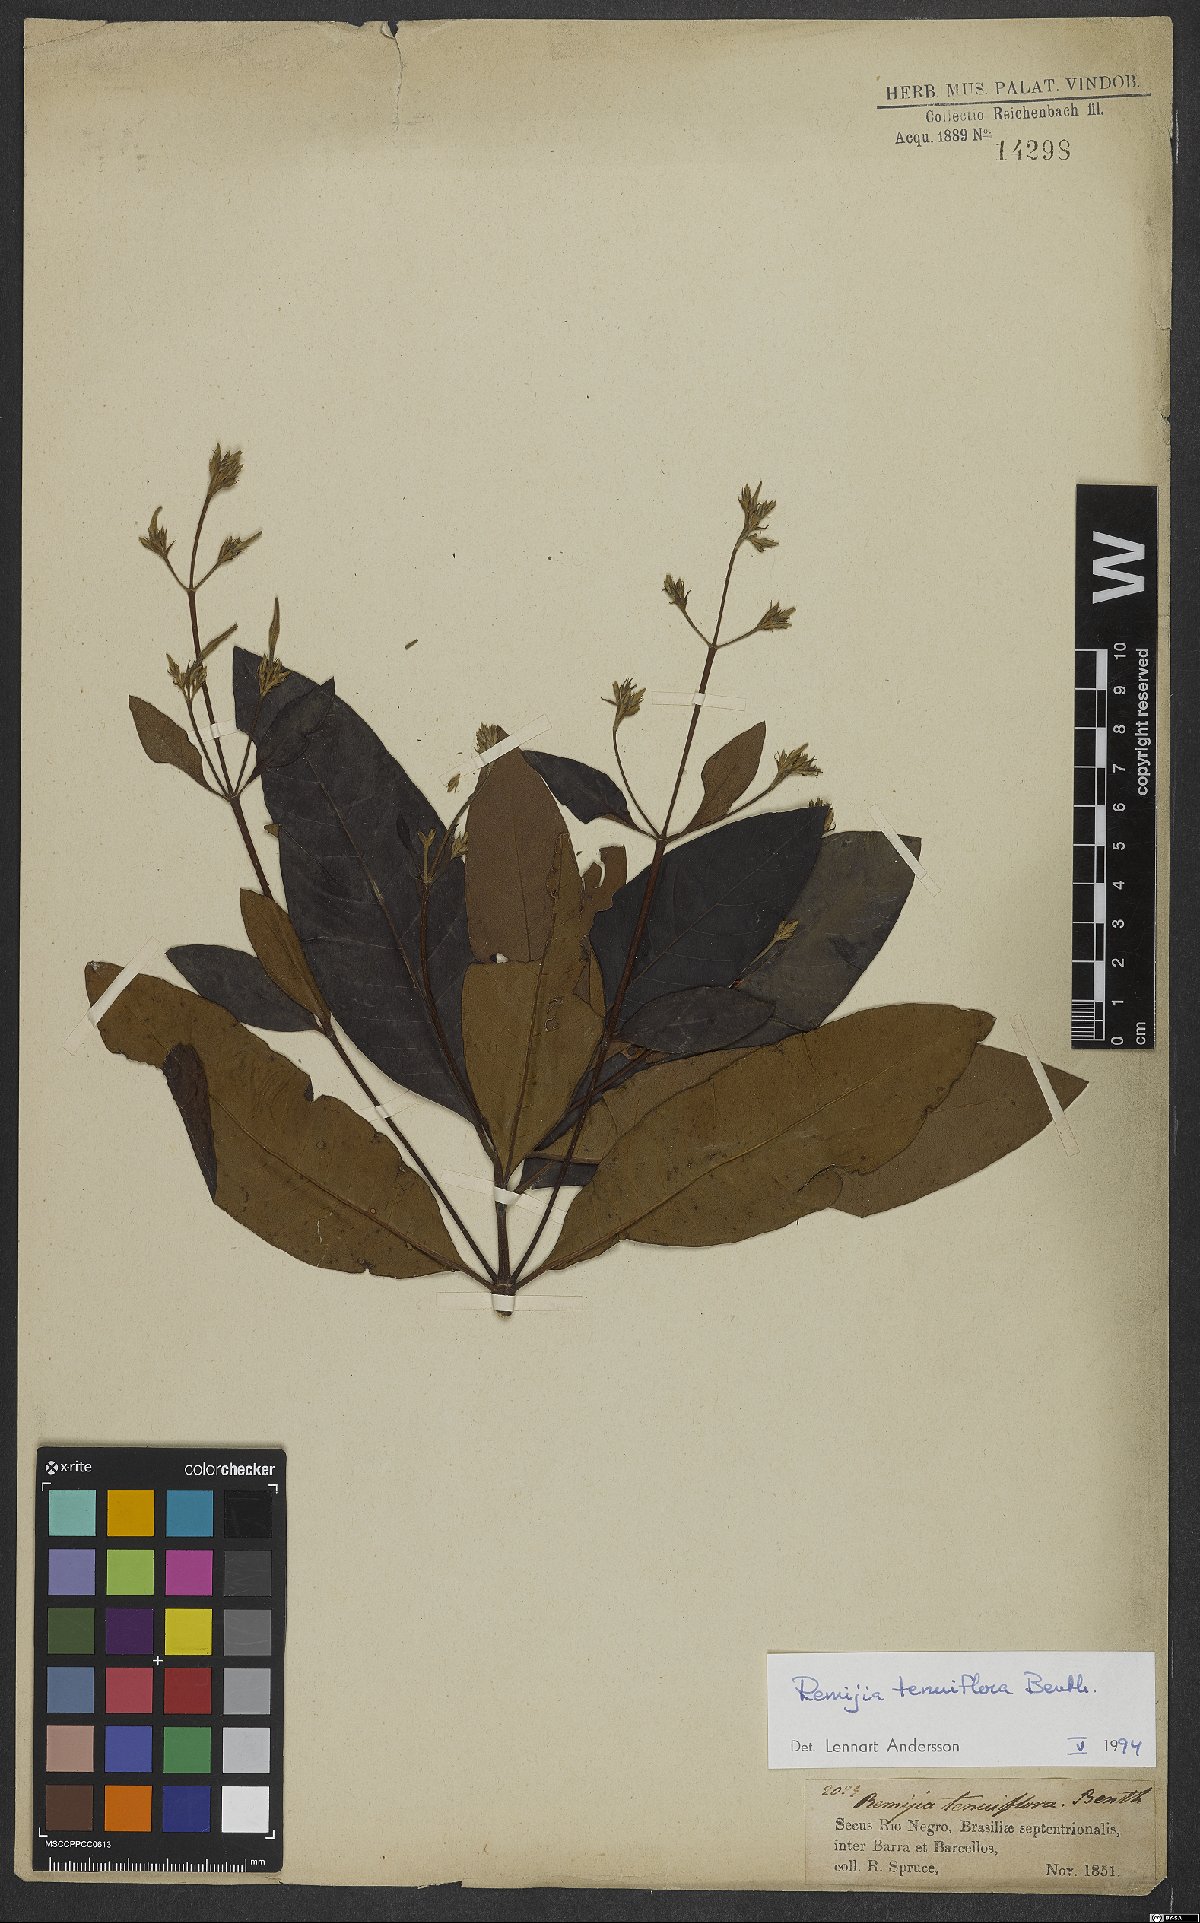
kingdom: Plantae
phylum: Tracheophyta
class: Magnoliopsida
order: Gentianales
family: Rubiaceae
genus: Remijia
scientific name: Remijia tenuiflora
